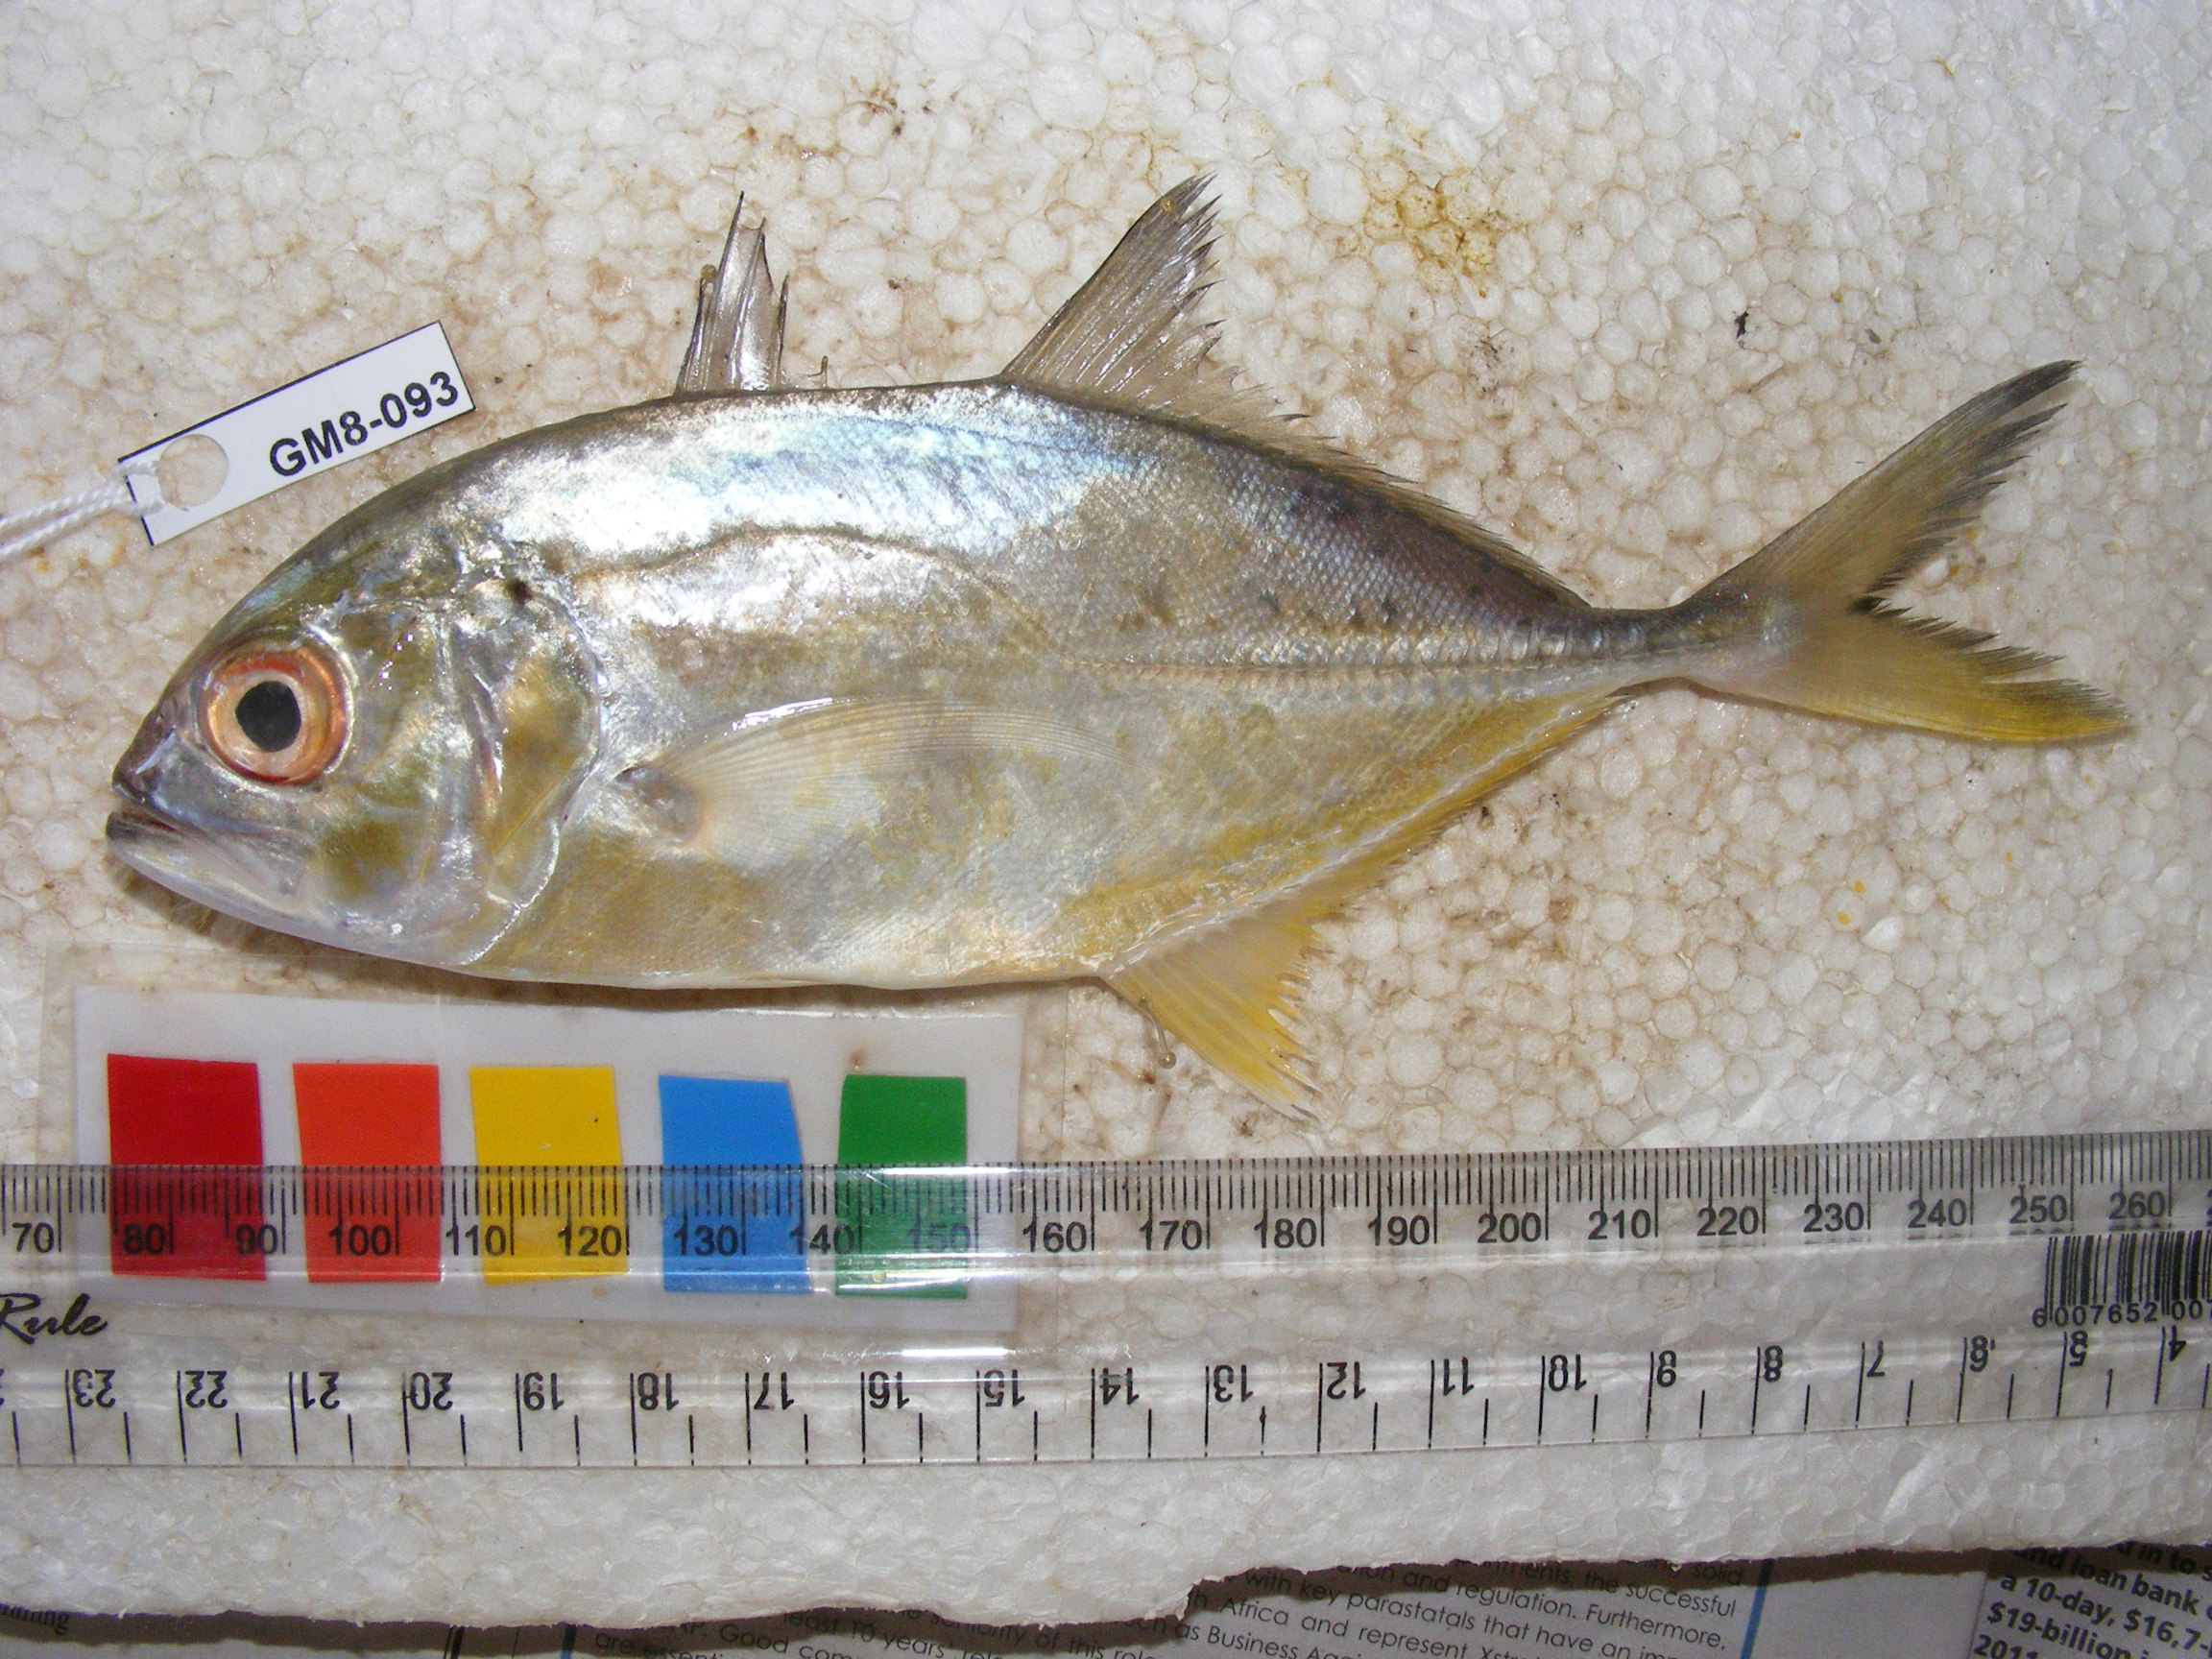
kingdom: Animalia
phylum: Chordata
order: Perciformes
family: Carangidae
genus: Caranx
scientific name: Caranx sexfasciatus
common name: Bigeye trevally
